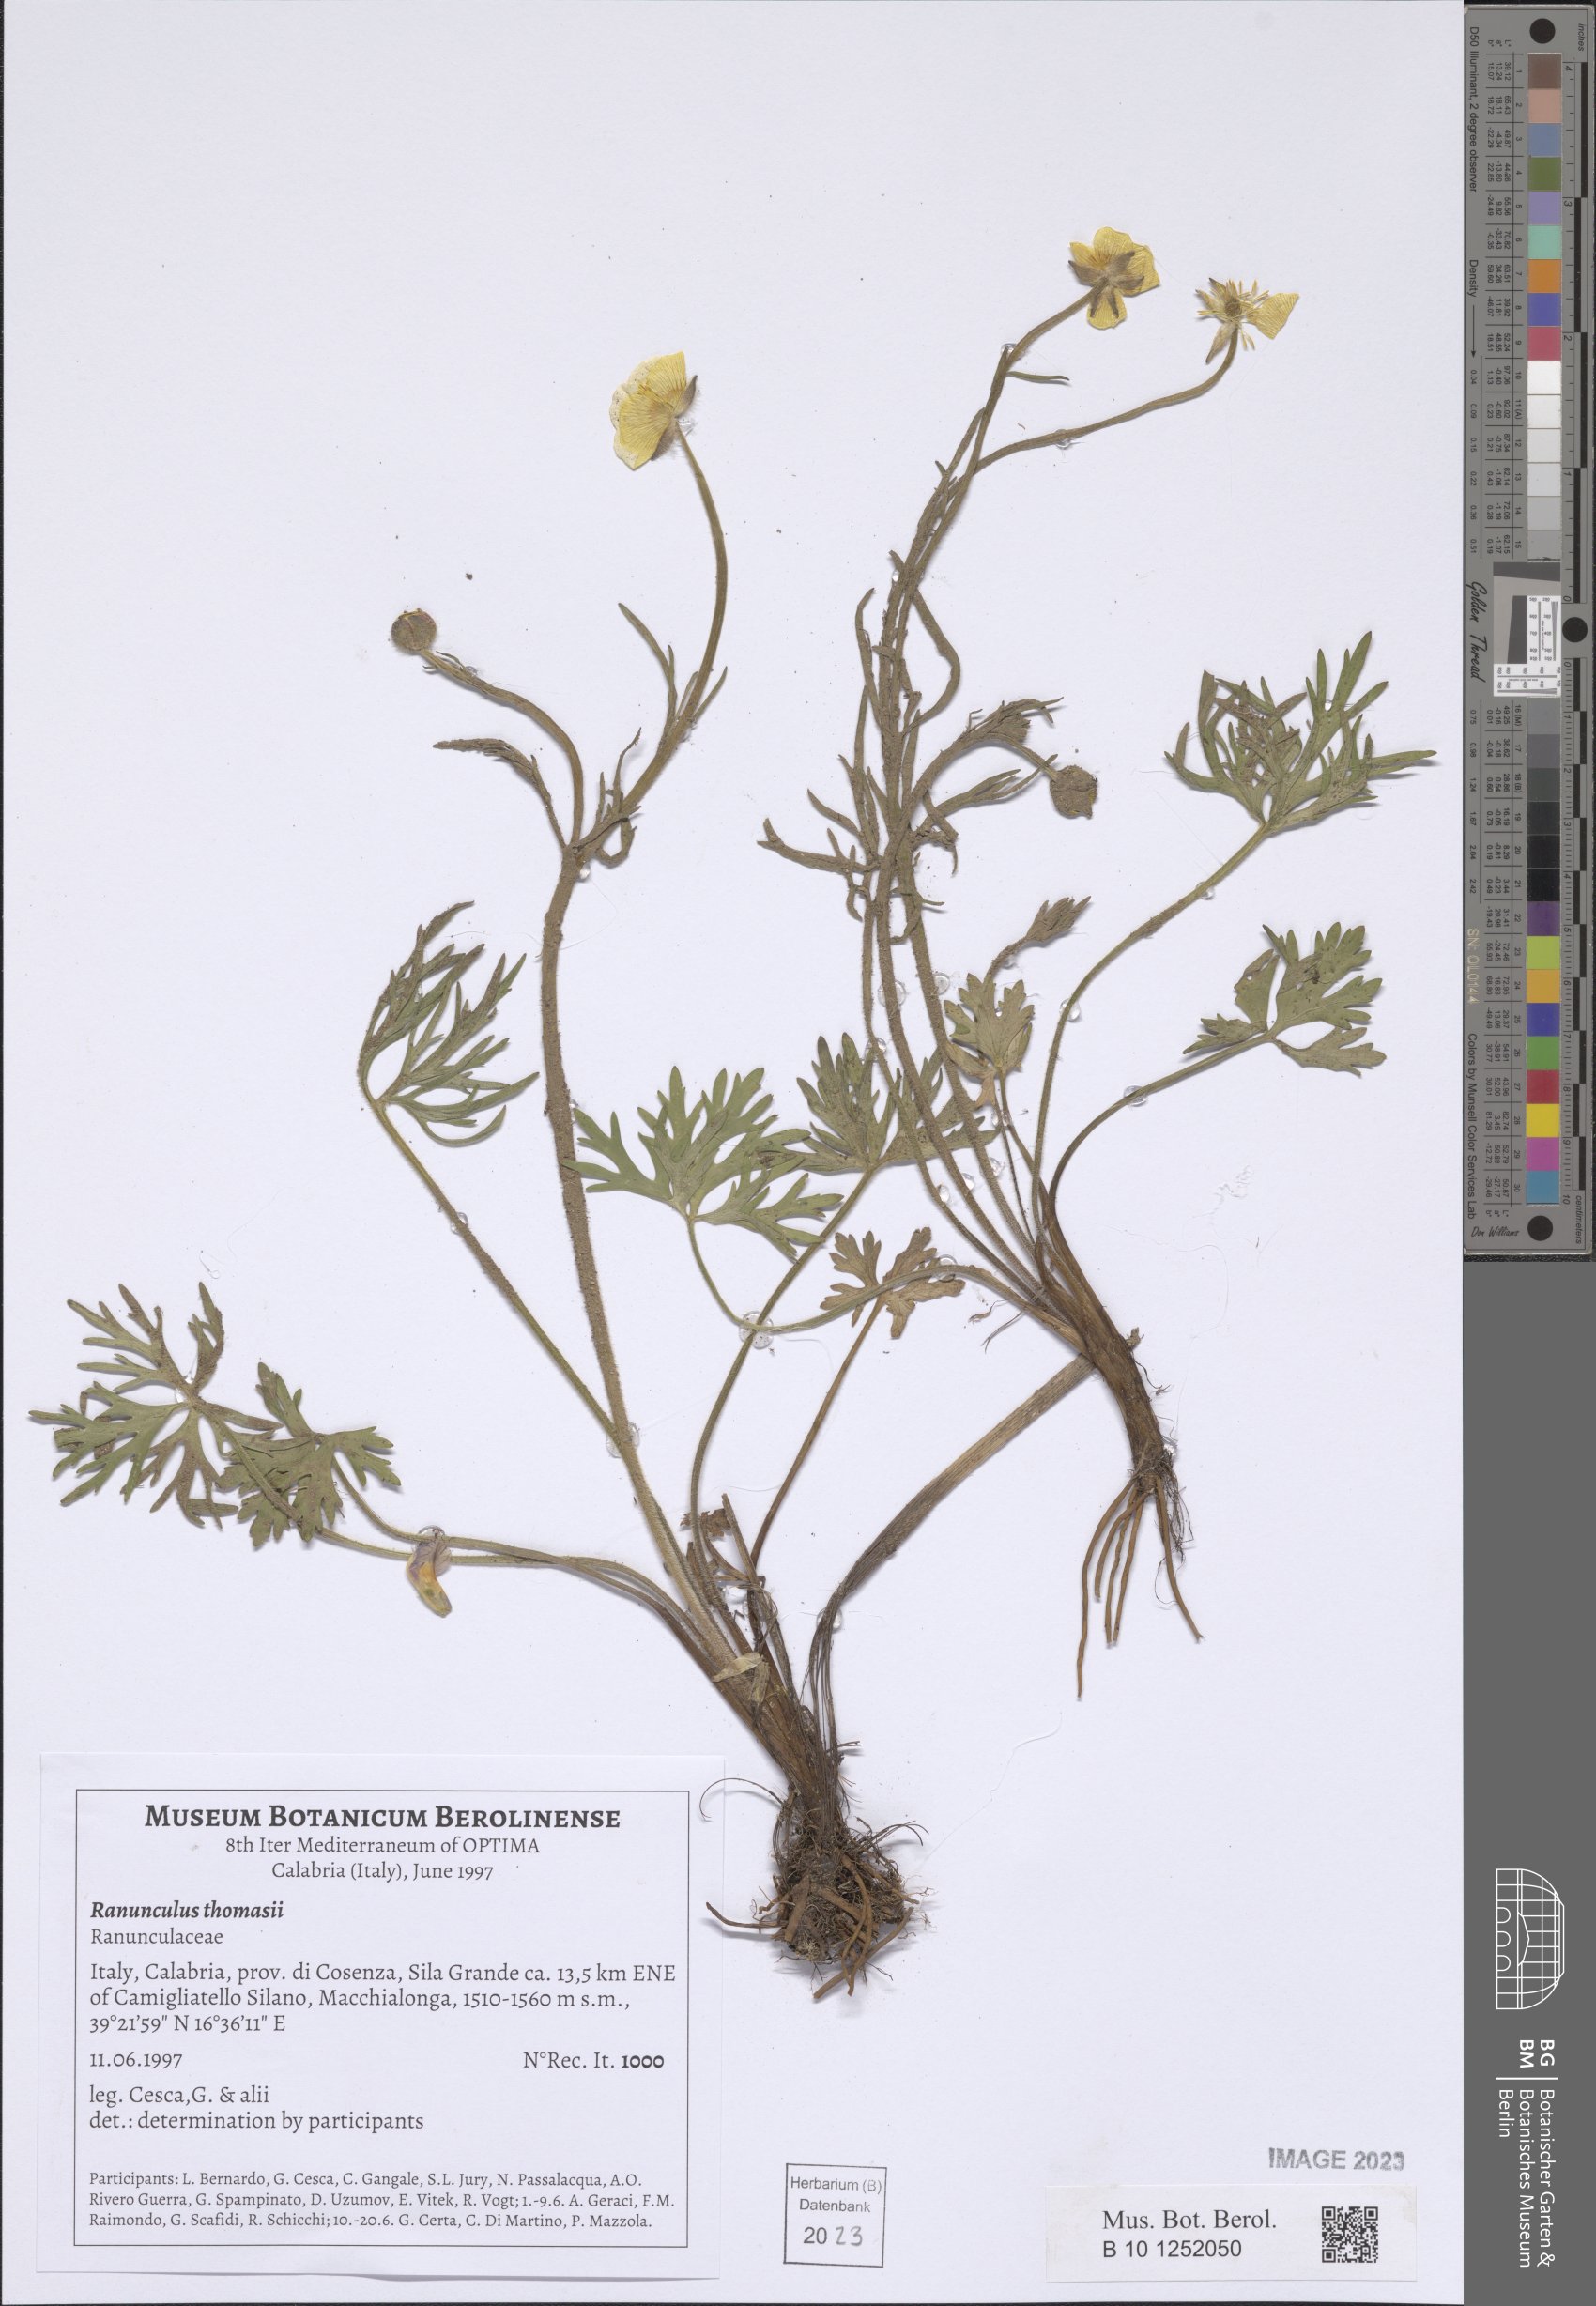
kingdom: Plantae
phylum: Tracheophyta
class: Magnoliopsida
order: Ranunculales
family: Ranunculaceae
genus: Ranunculus
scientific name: Ranunculus polyanthemos
